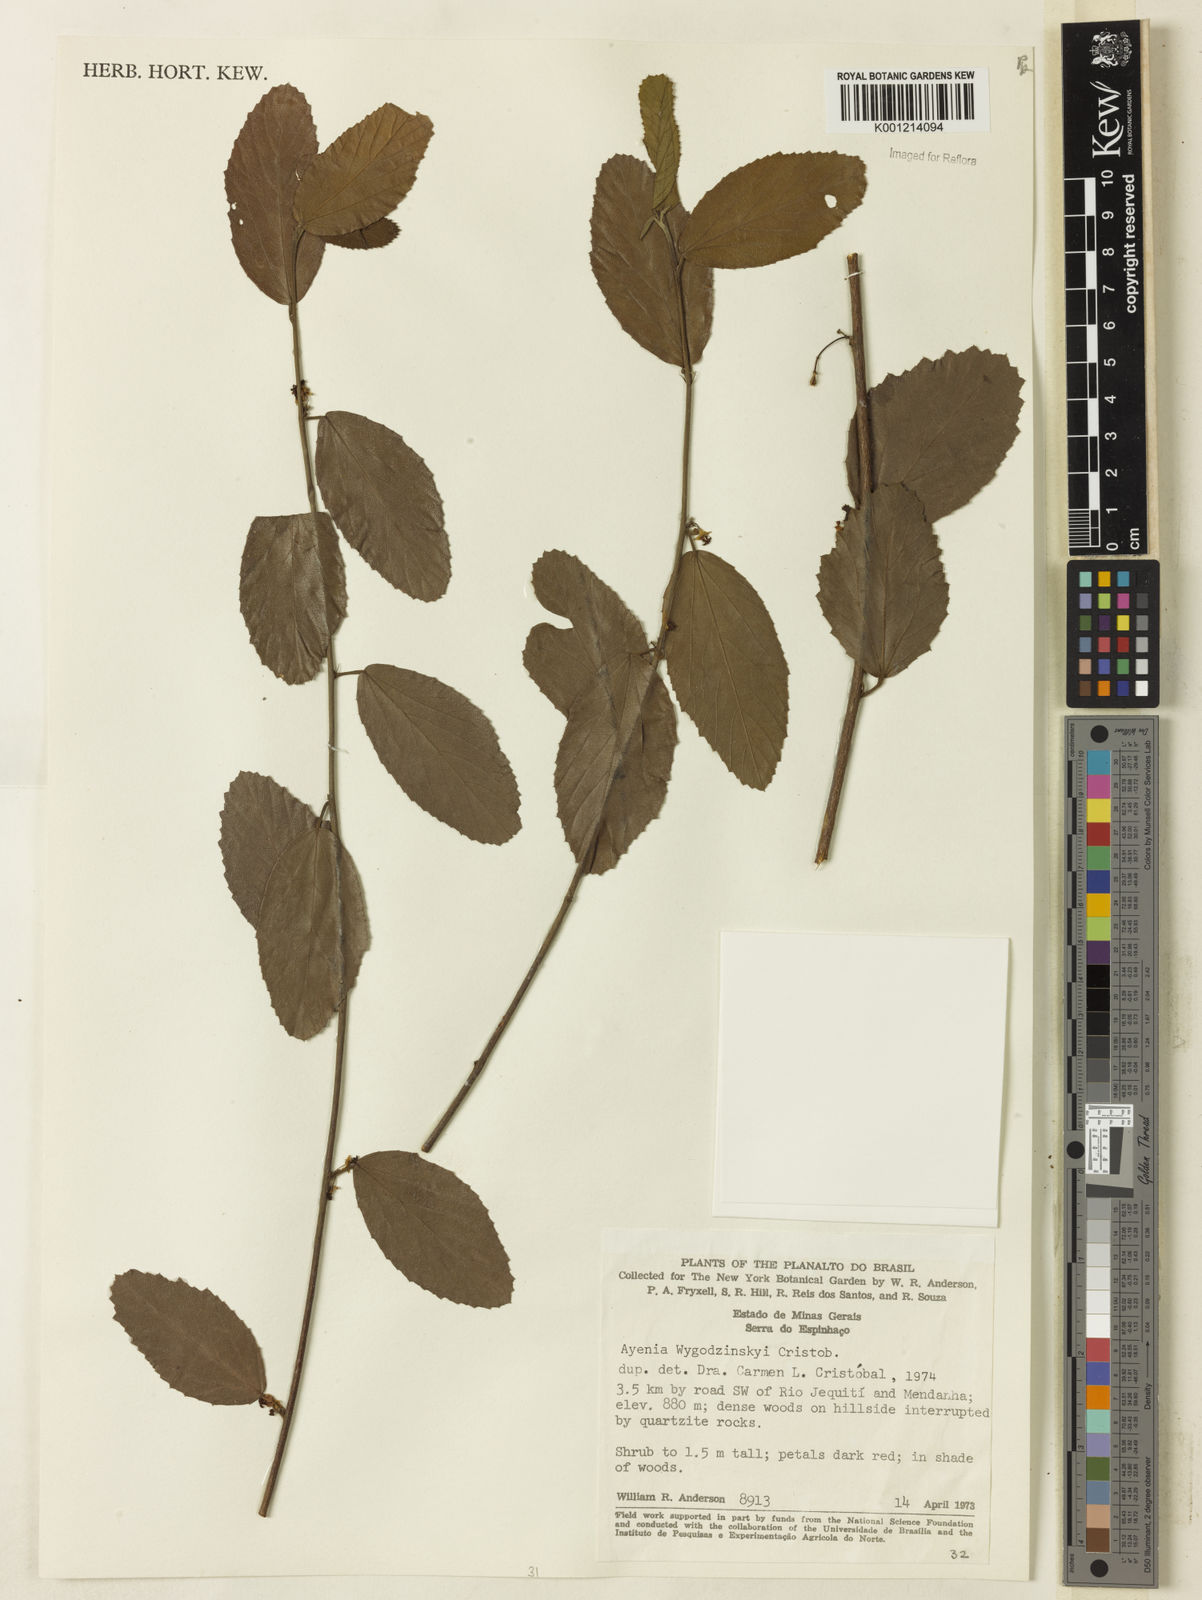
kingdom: Plantae
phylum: Tracheophyta
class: Magnoliopsida
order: Malvales
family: Malvaceae
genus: Ayenia
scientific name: Ayenia
